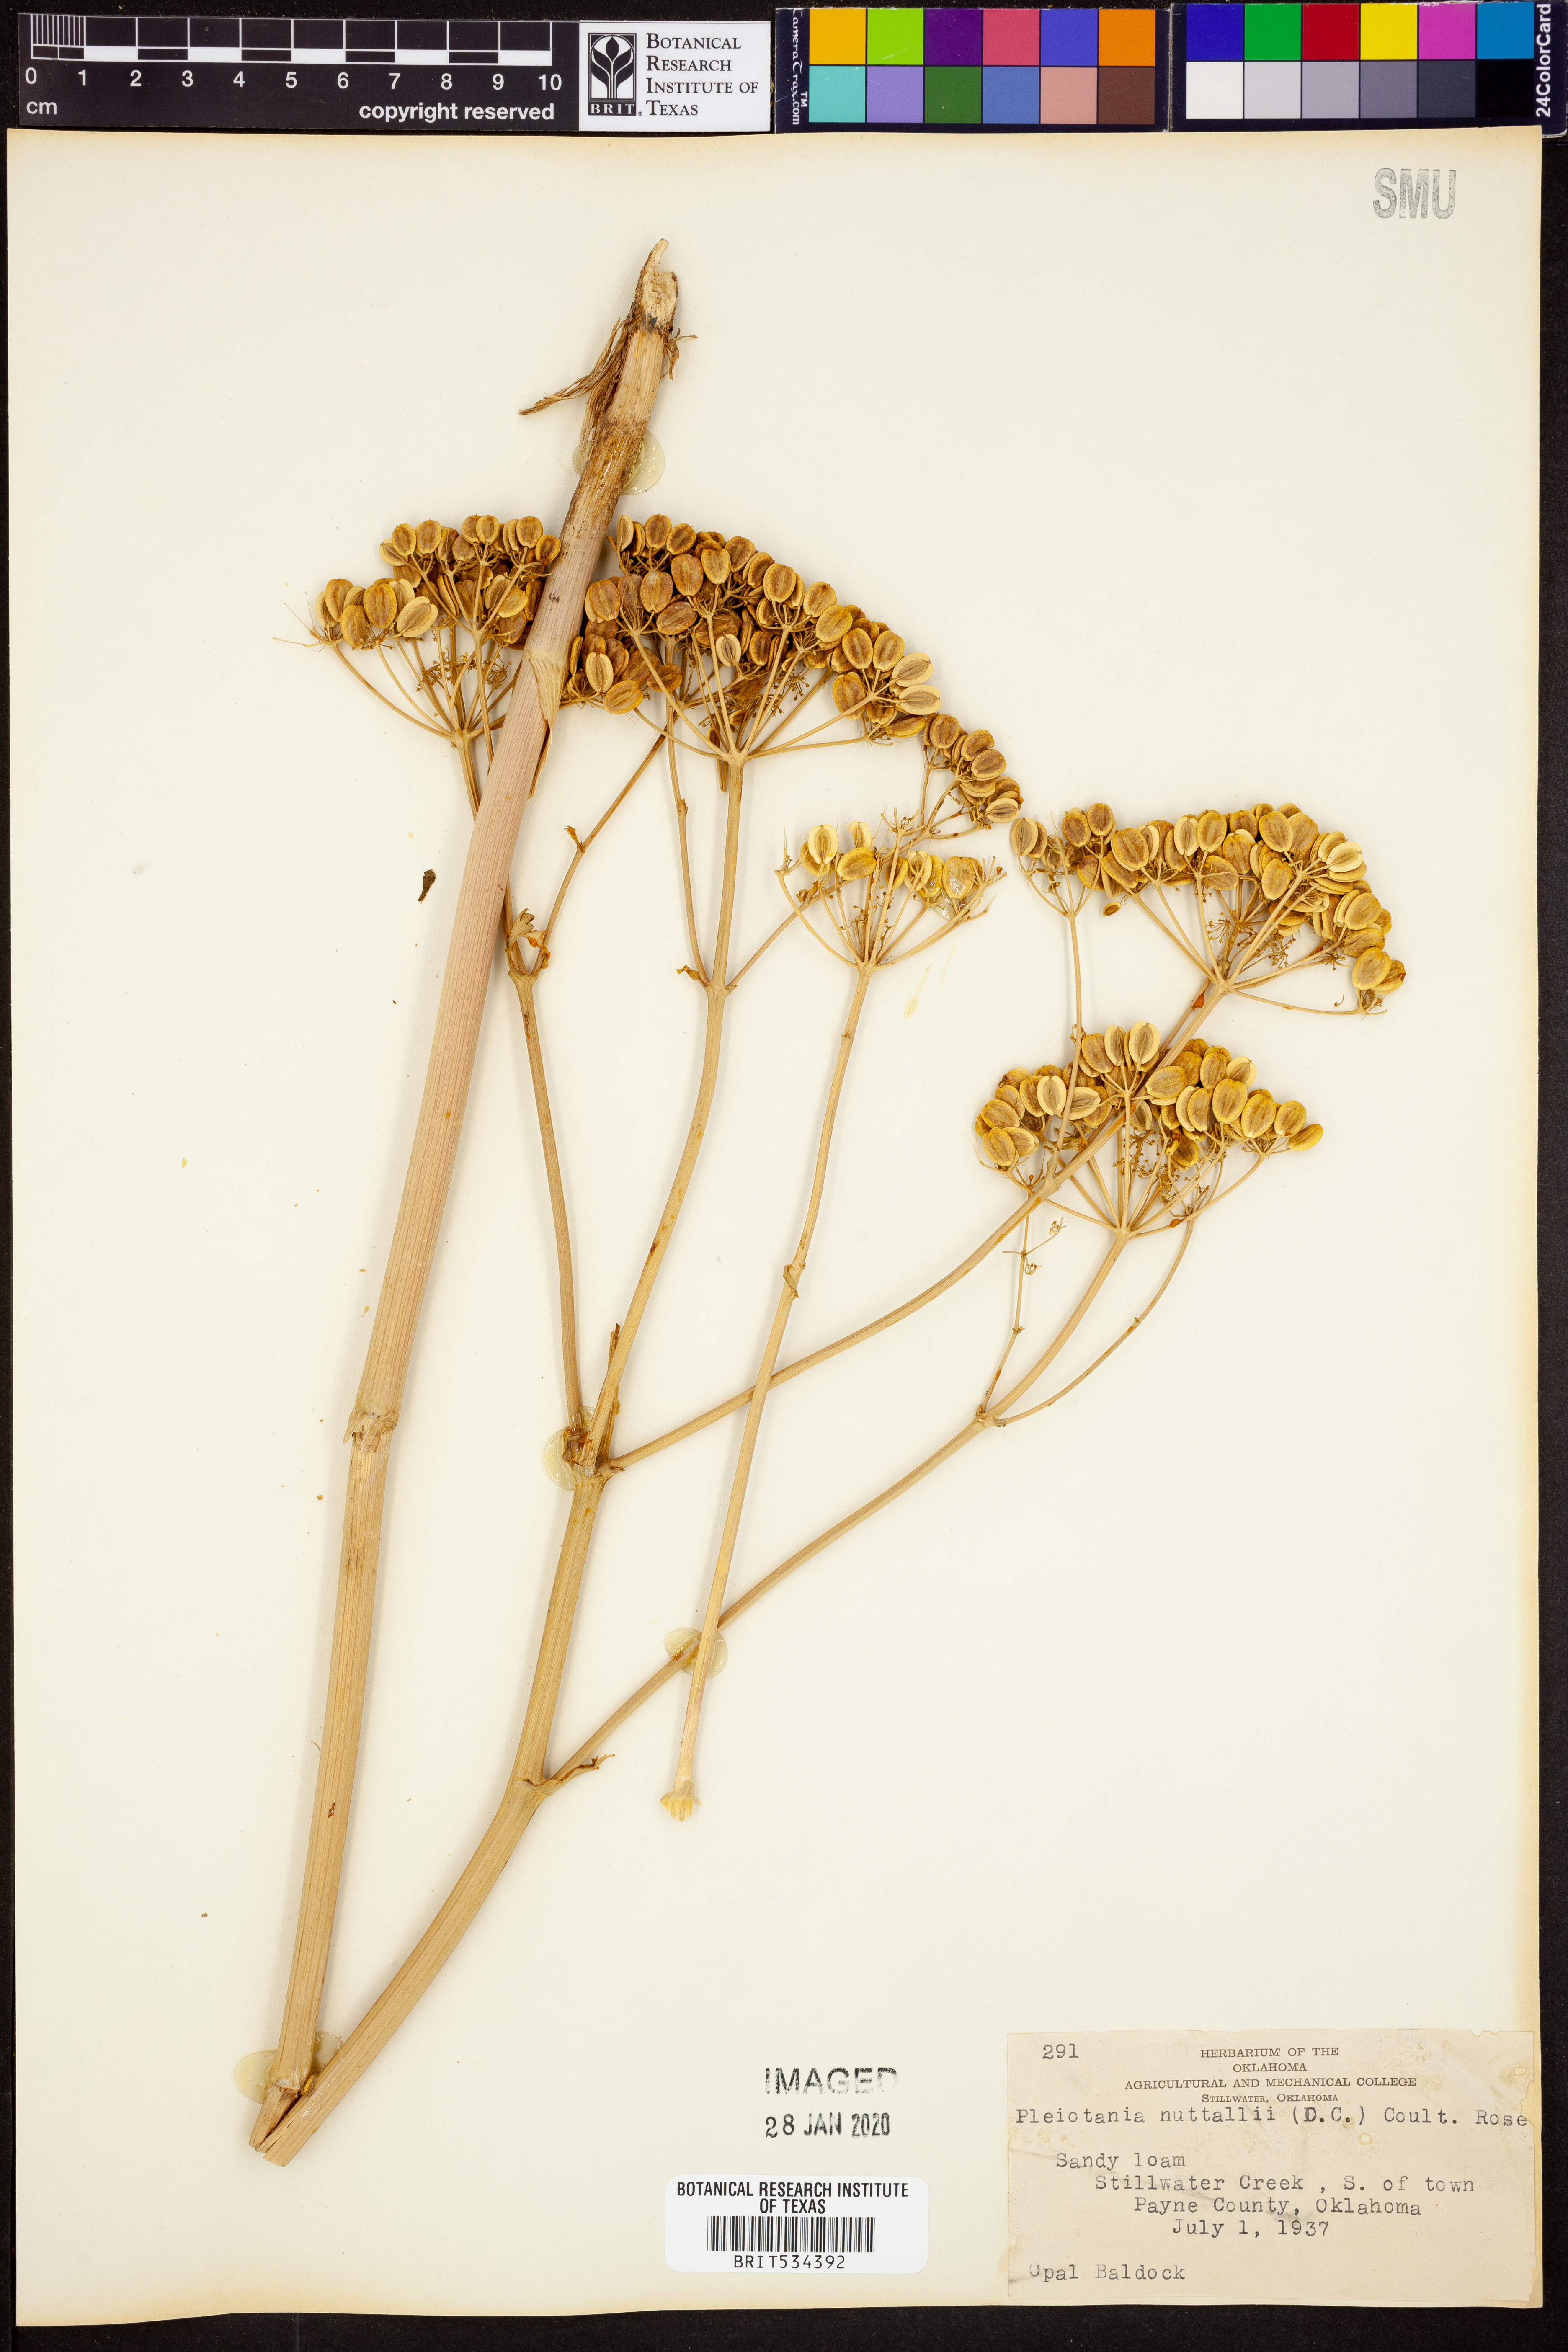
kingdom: Plantae
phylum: Tracheophyta
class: Magnoliopsida
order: Apiales
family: Apiaceae
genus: Polytaenia
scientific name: Polytaenia nuttallii
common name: Prairie-parsley
